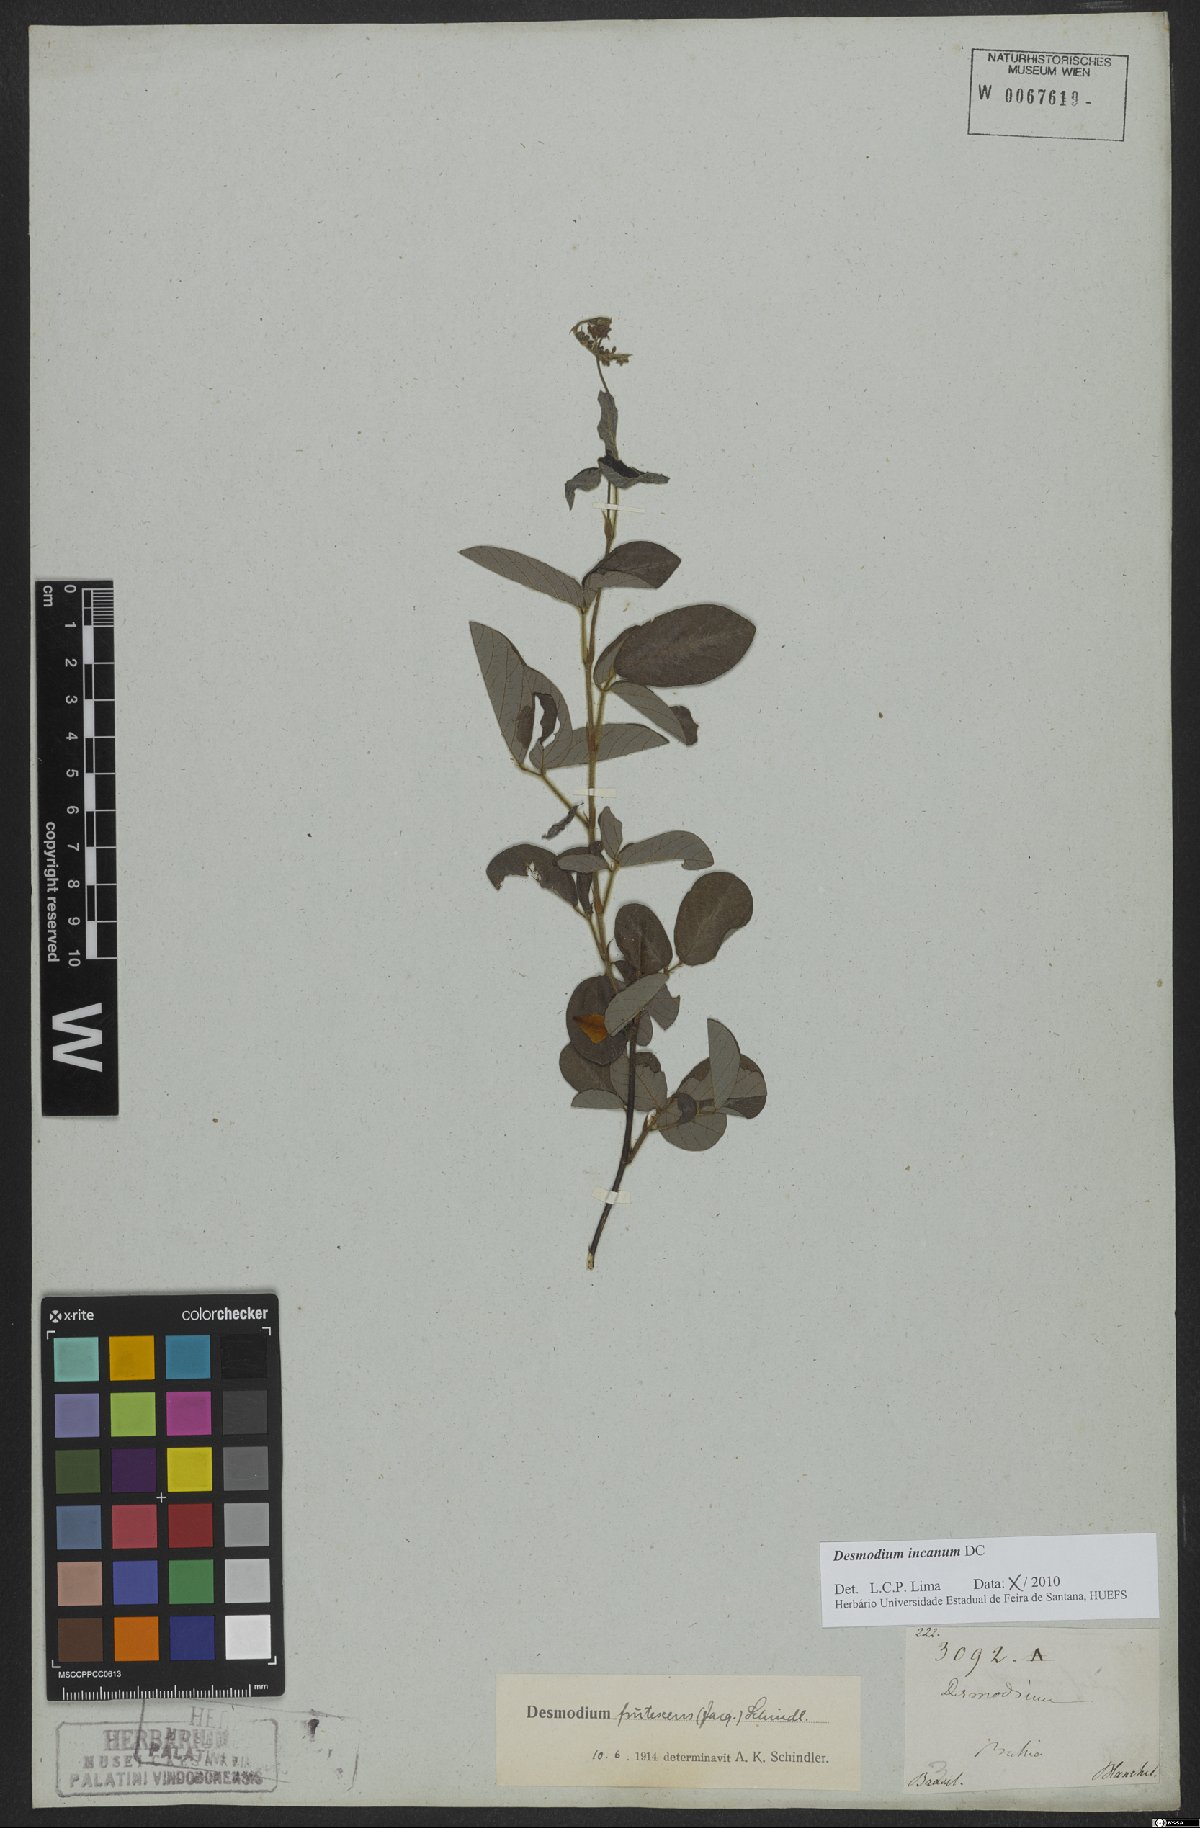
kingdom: Plantae
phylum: Tracheophyta
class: Magnoliopsida
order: Fabales
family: Fabaceae
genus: Desmodium
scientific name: Desmodium incanum
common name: Tickclover
